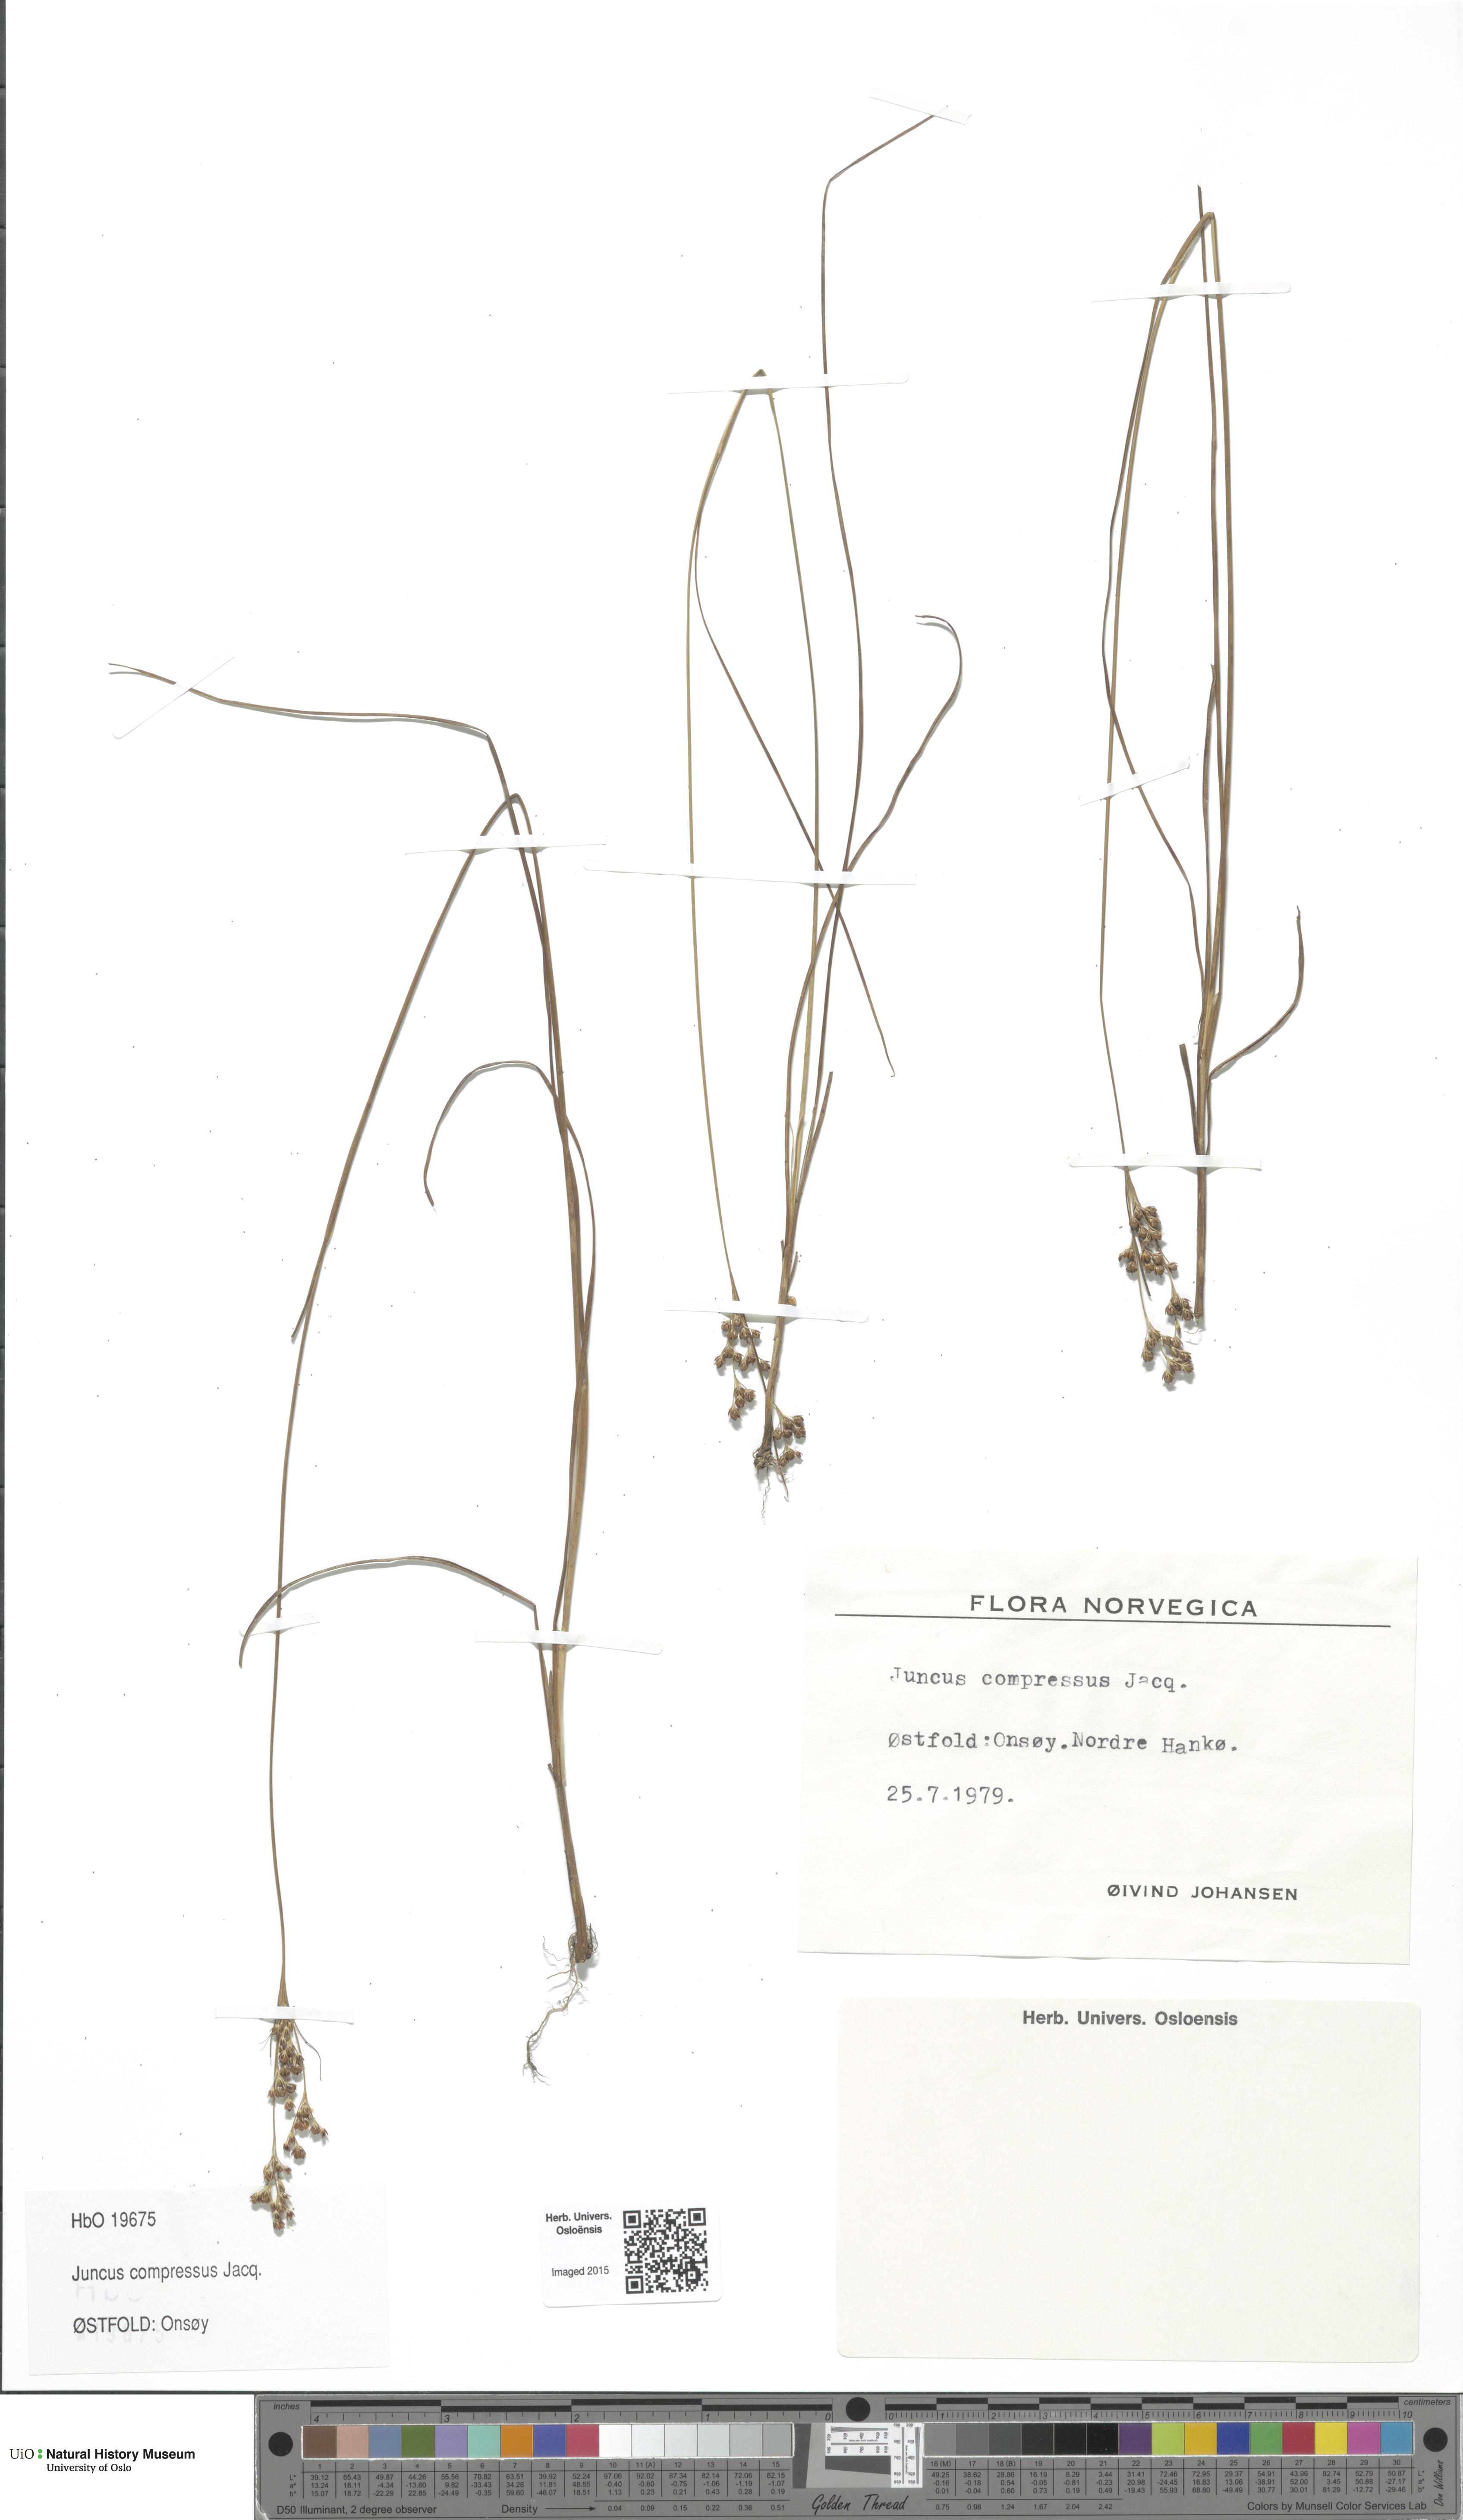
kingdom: Plantae
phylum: Tracheophyta
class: Liliopsida
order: Poales
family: Juncaceae
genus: Juncus
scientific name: Juncus compressus
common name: Round-fruited rush
